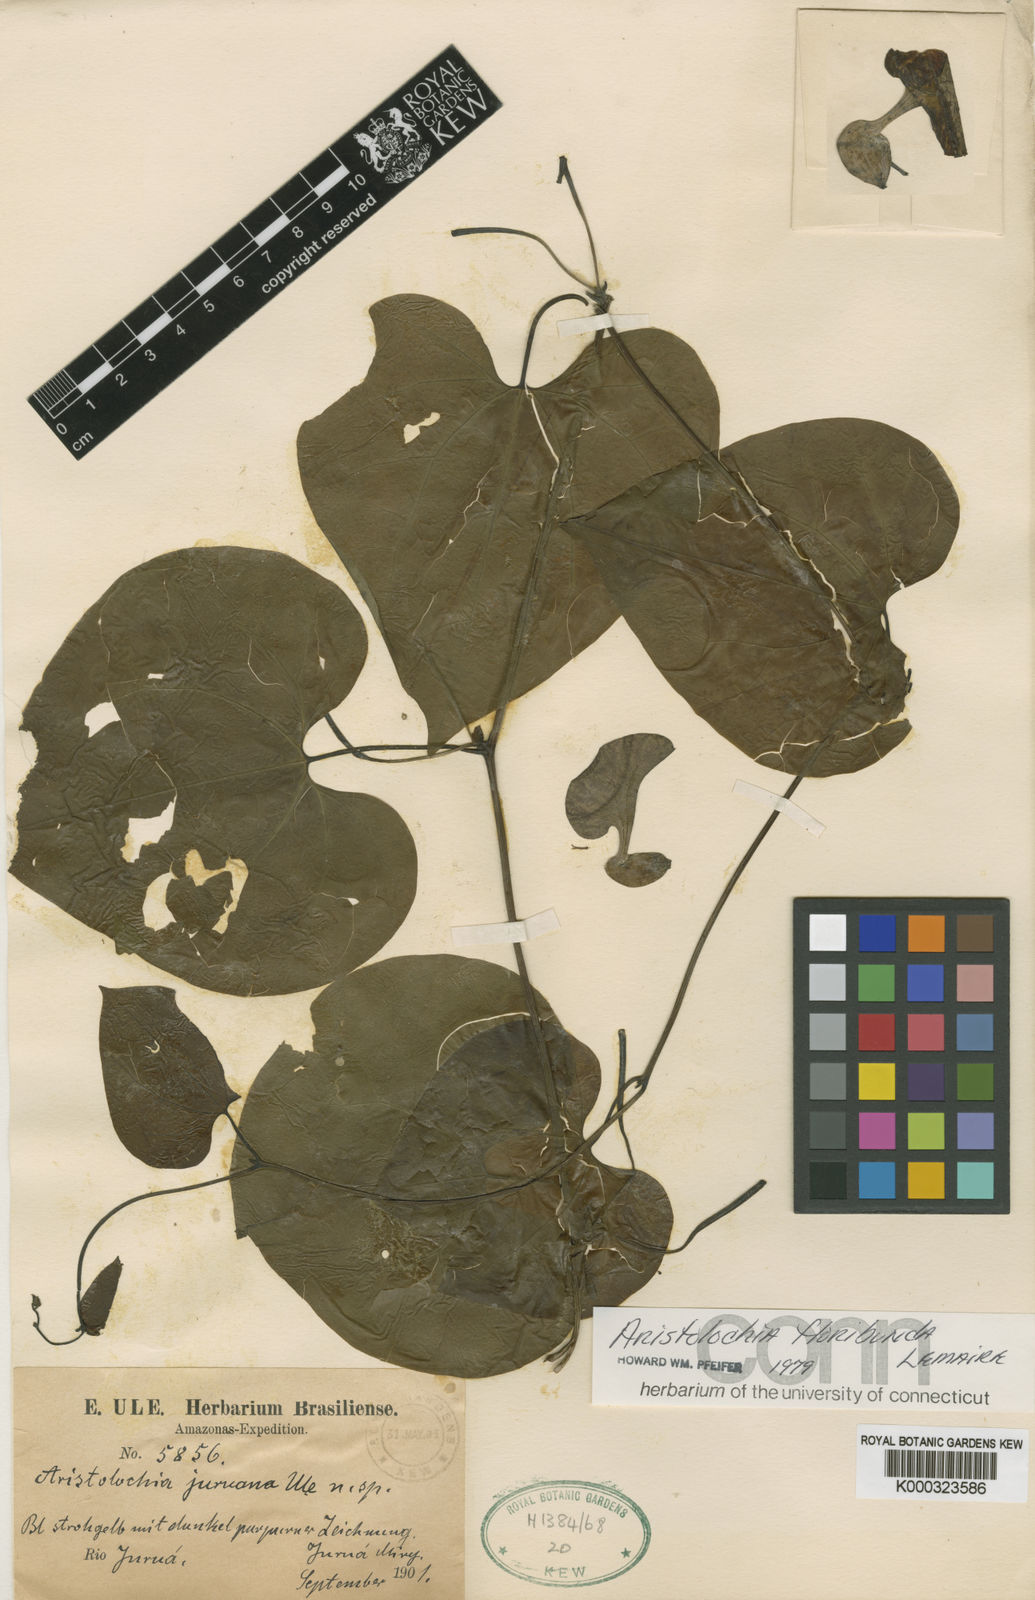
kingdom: Plantae
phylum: Tracheophyta
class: Magnoliopsida
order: Piperales
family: Aristolochiaceae
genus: Aristolochia
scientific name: Aristolochia floribunda
